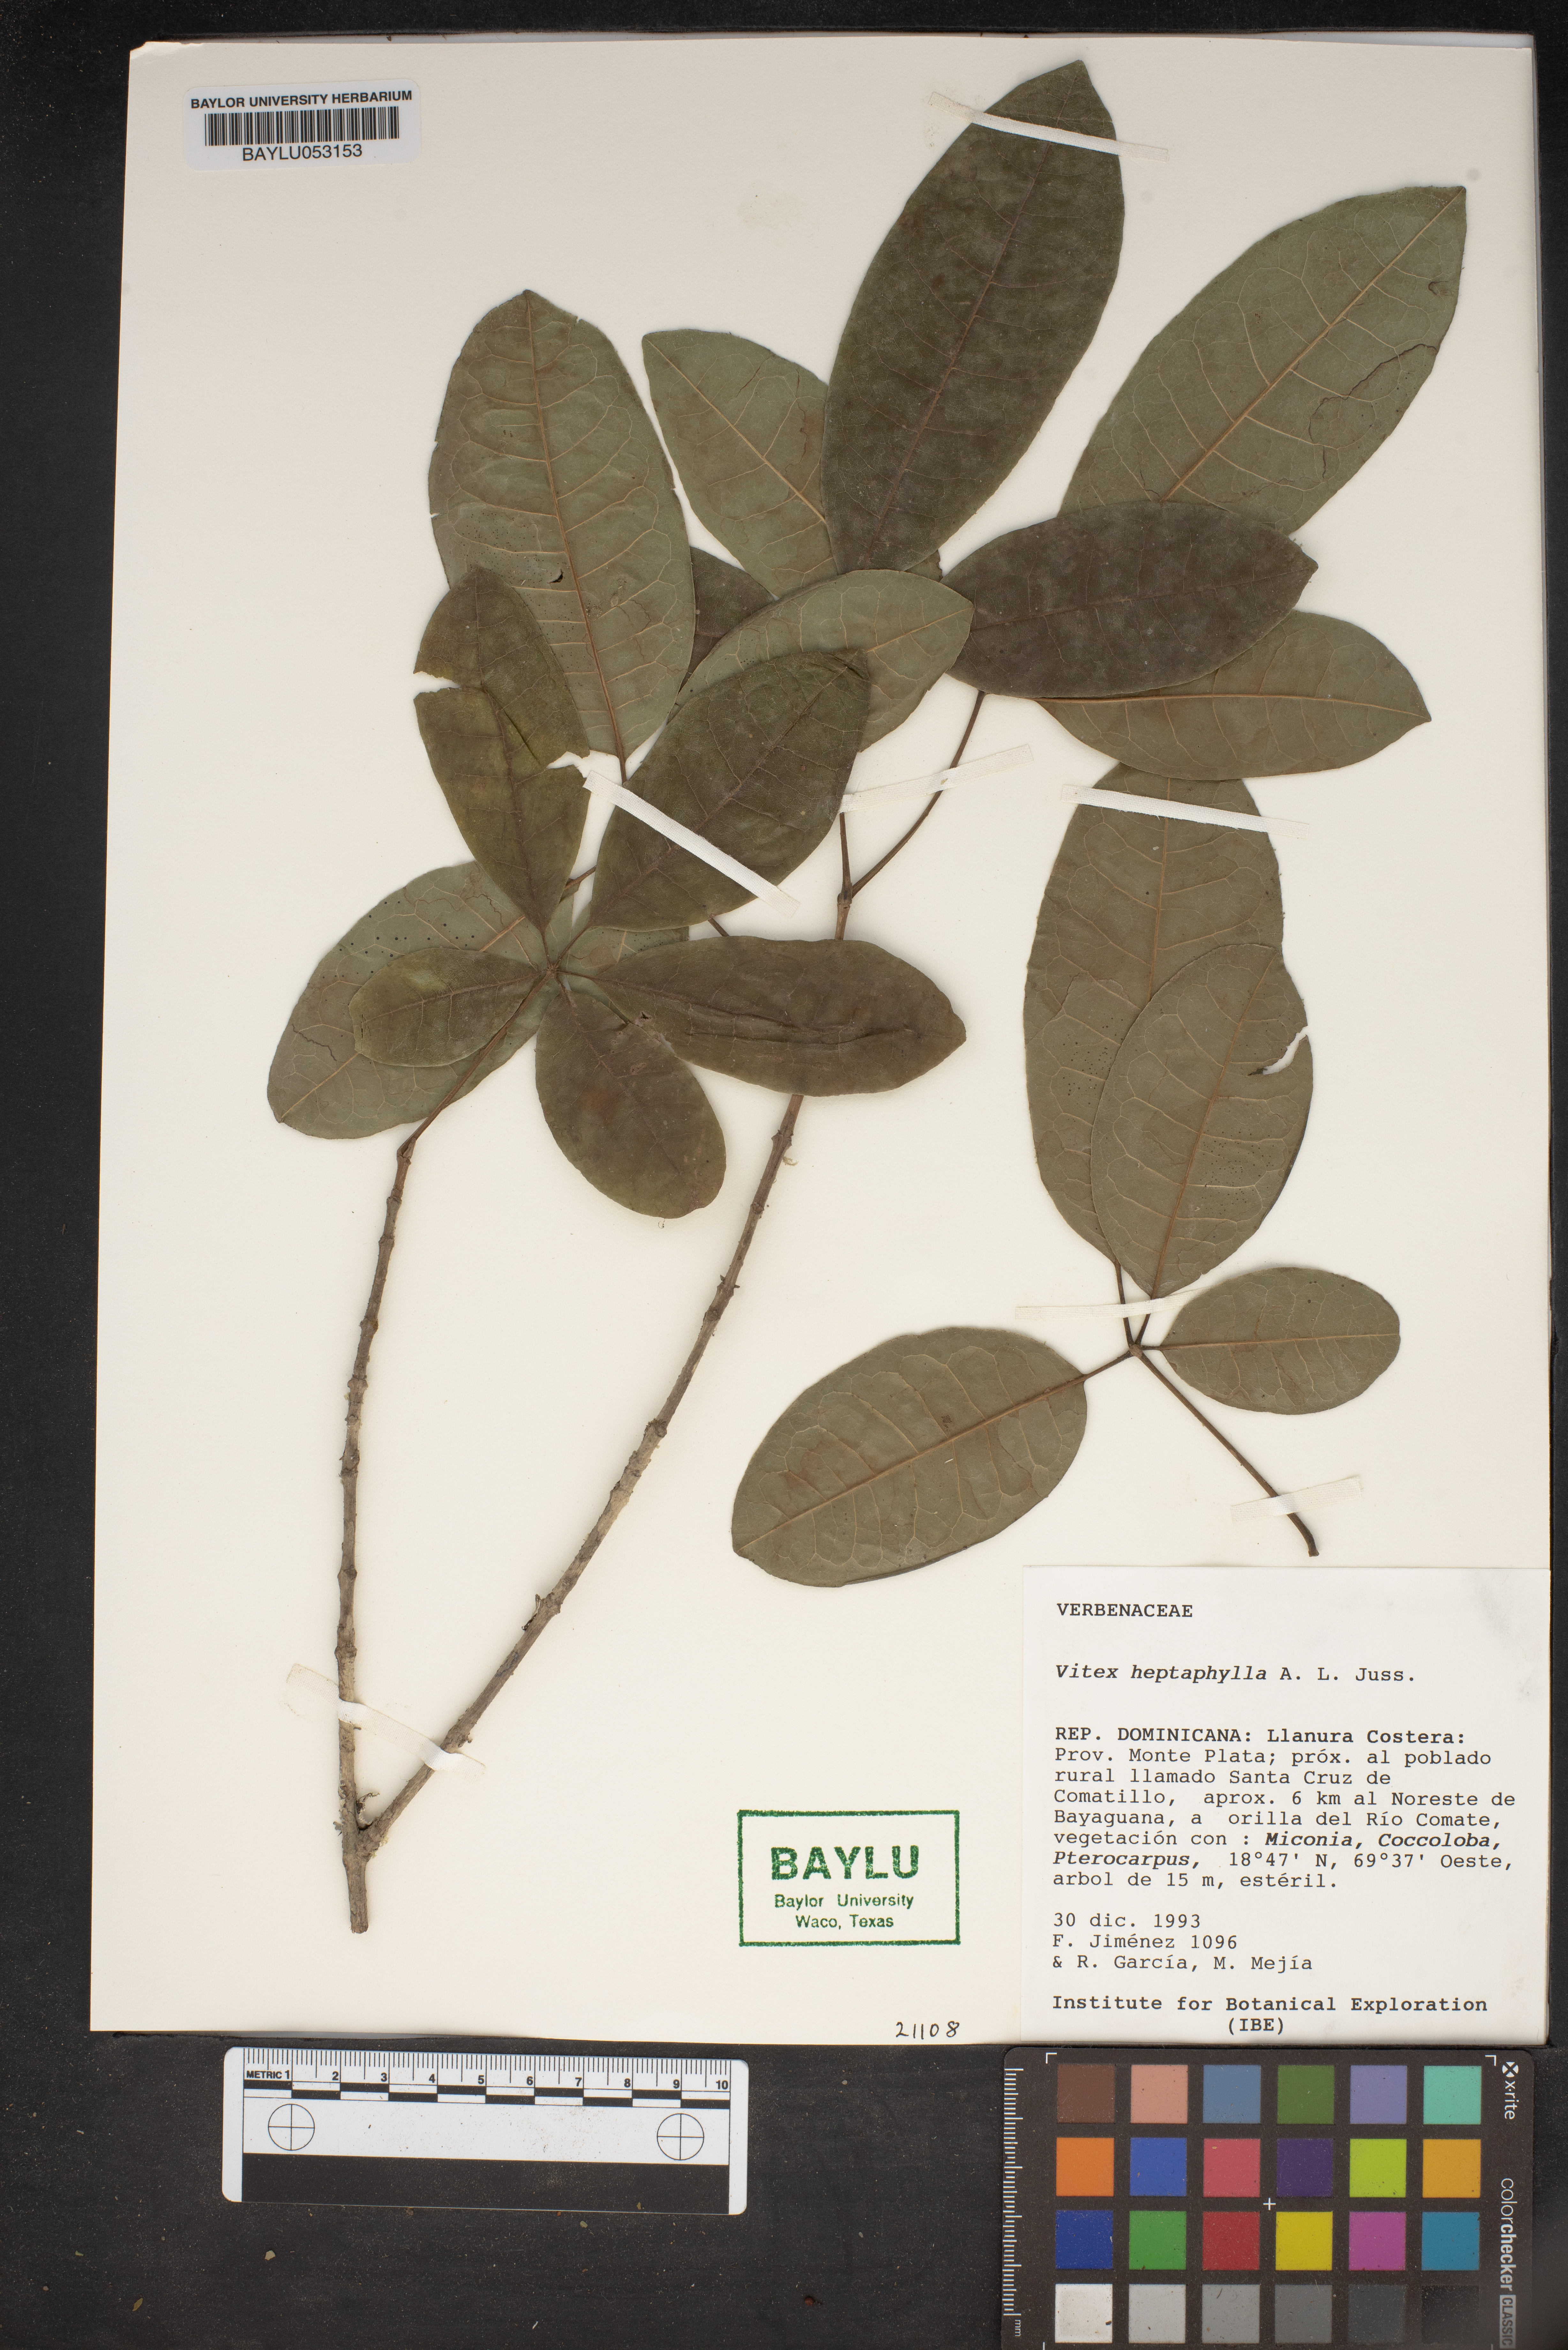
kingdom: Plantae
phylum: Tracheophyta
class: Magnoliopsida
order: Lamiales
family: Lamiaceae
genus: Vitex
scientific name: Vitex heptaphylla
